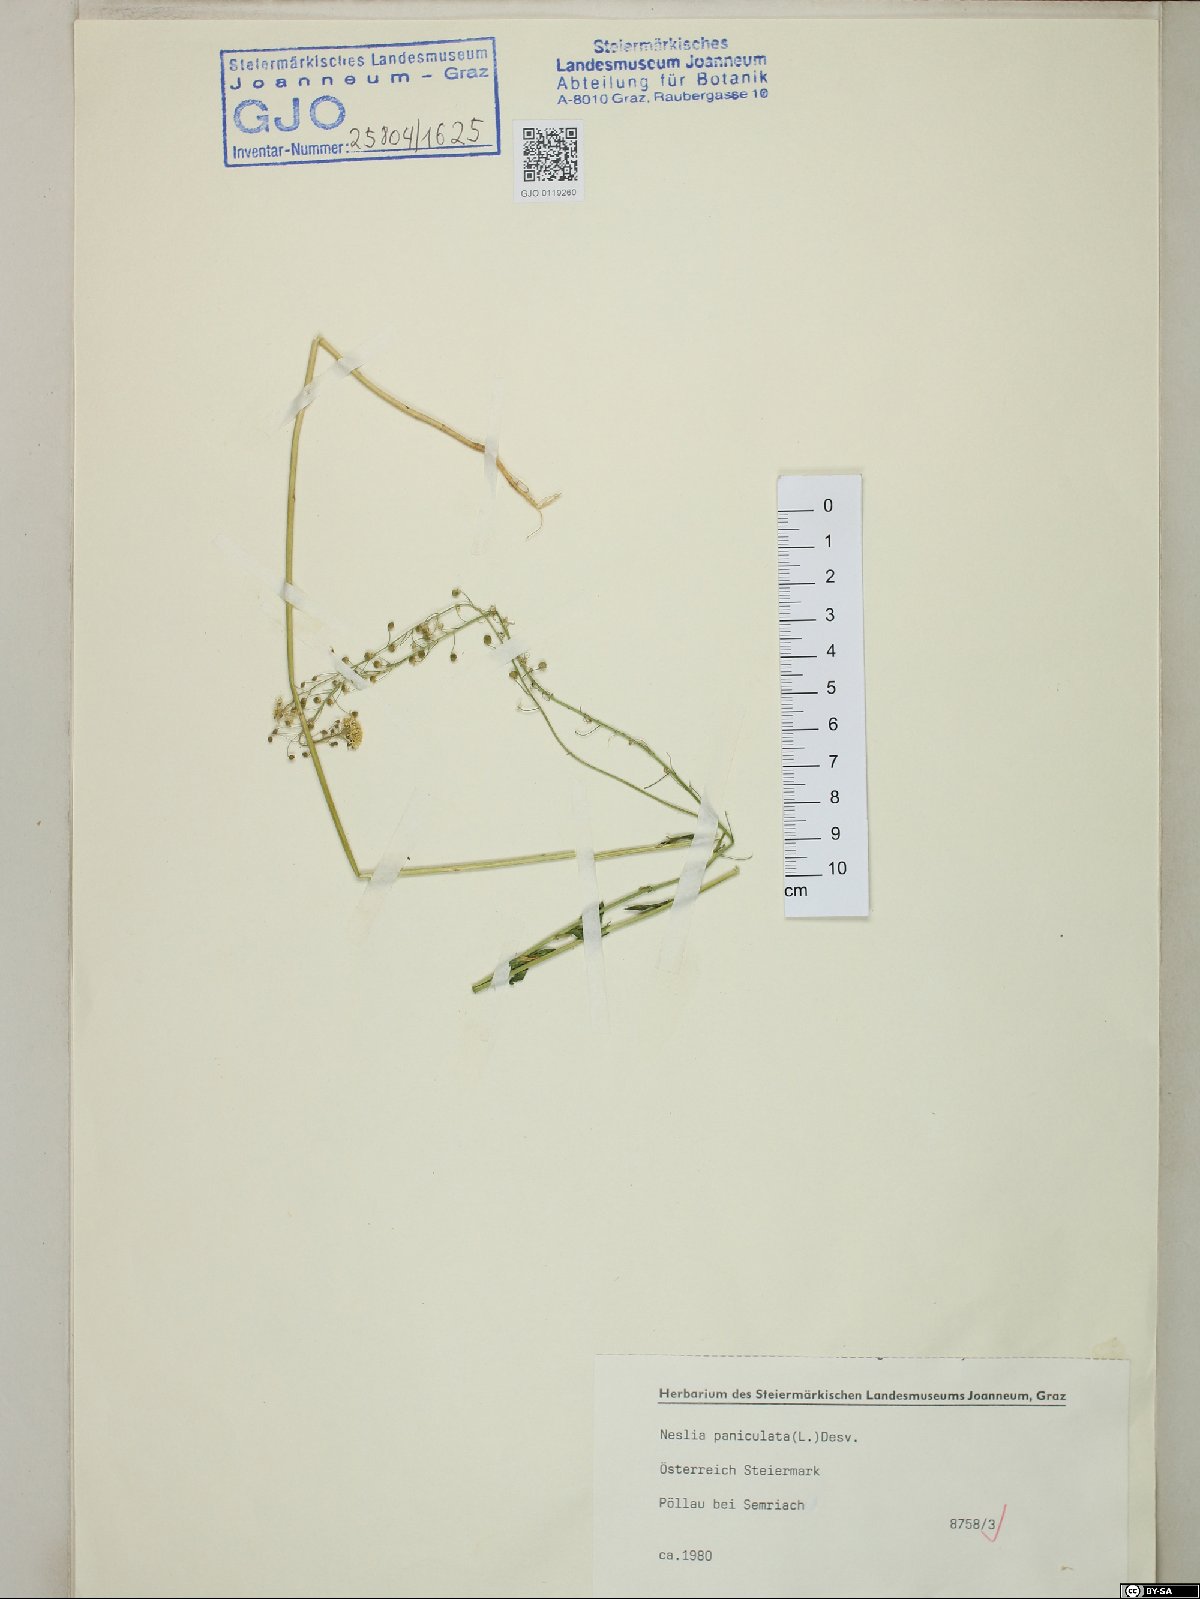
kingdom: Plantae
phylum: Tracheophyta
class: Magnoliopsida
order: Brassicales
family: Brassicaceae
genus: Neslia
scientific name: Neslia paniculata
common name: Ball mustard
